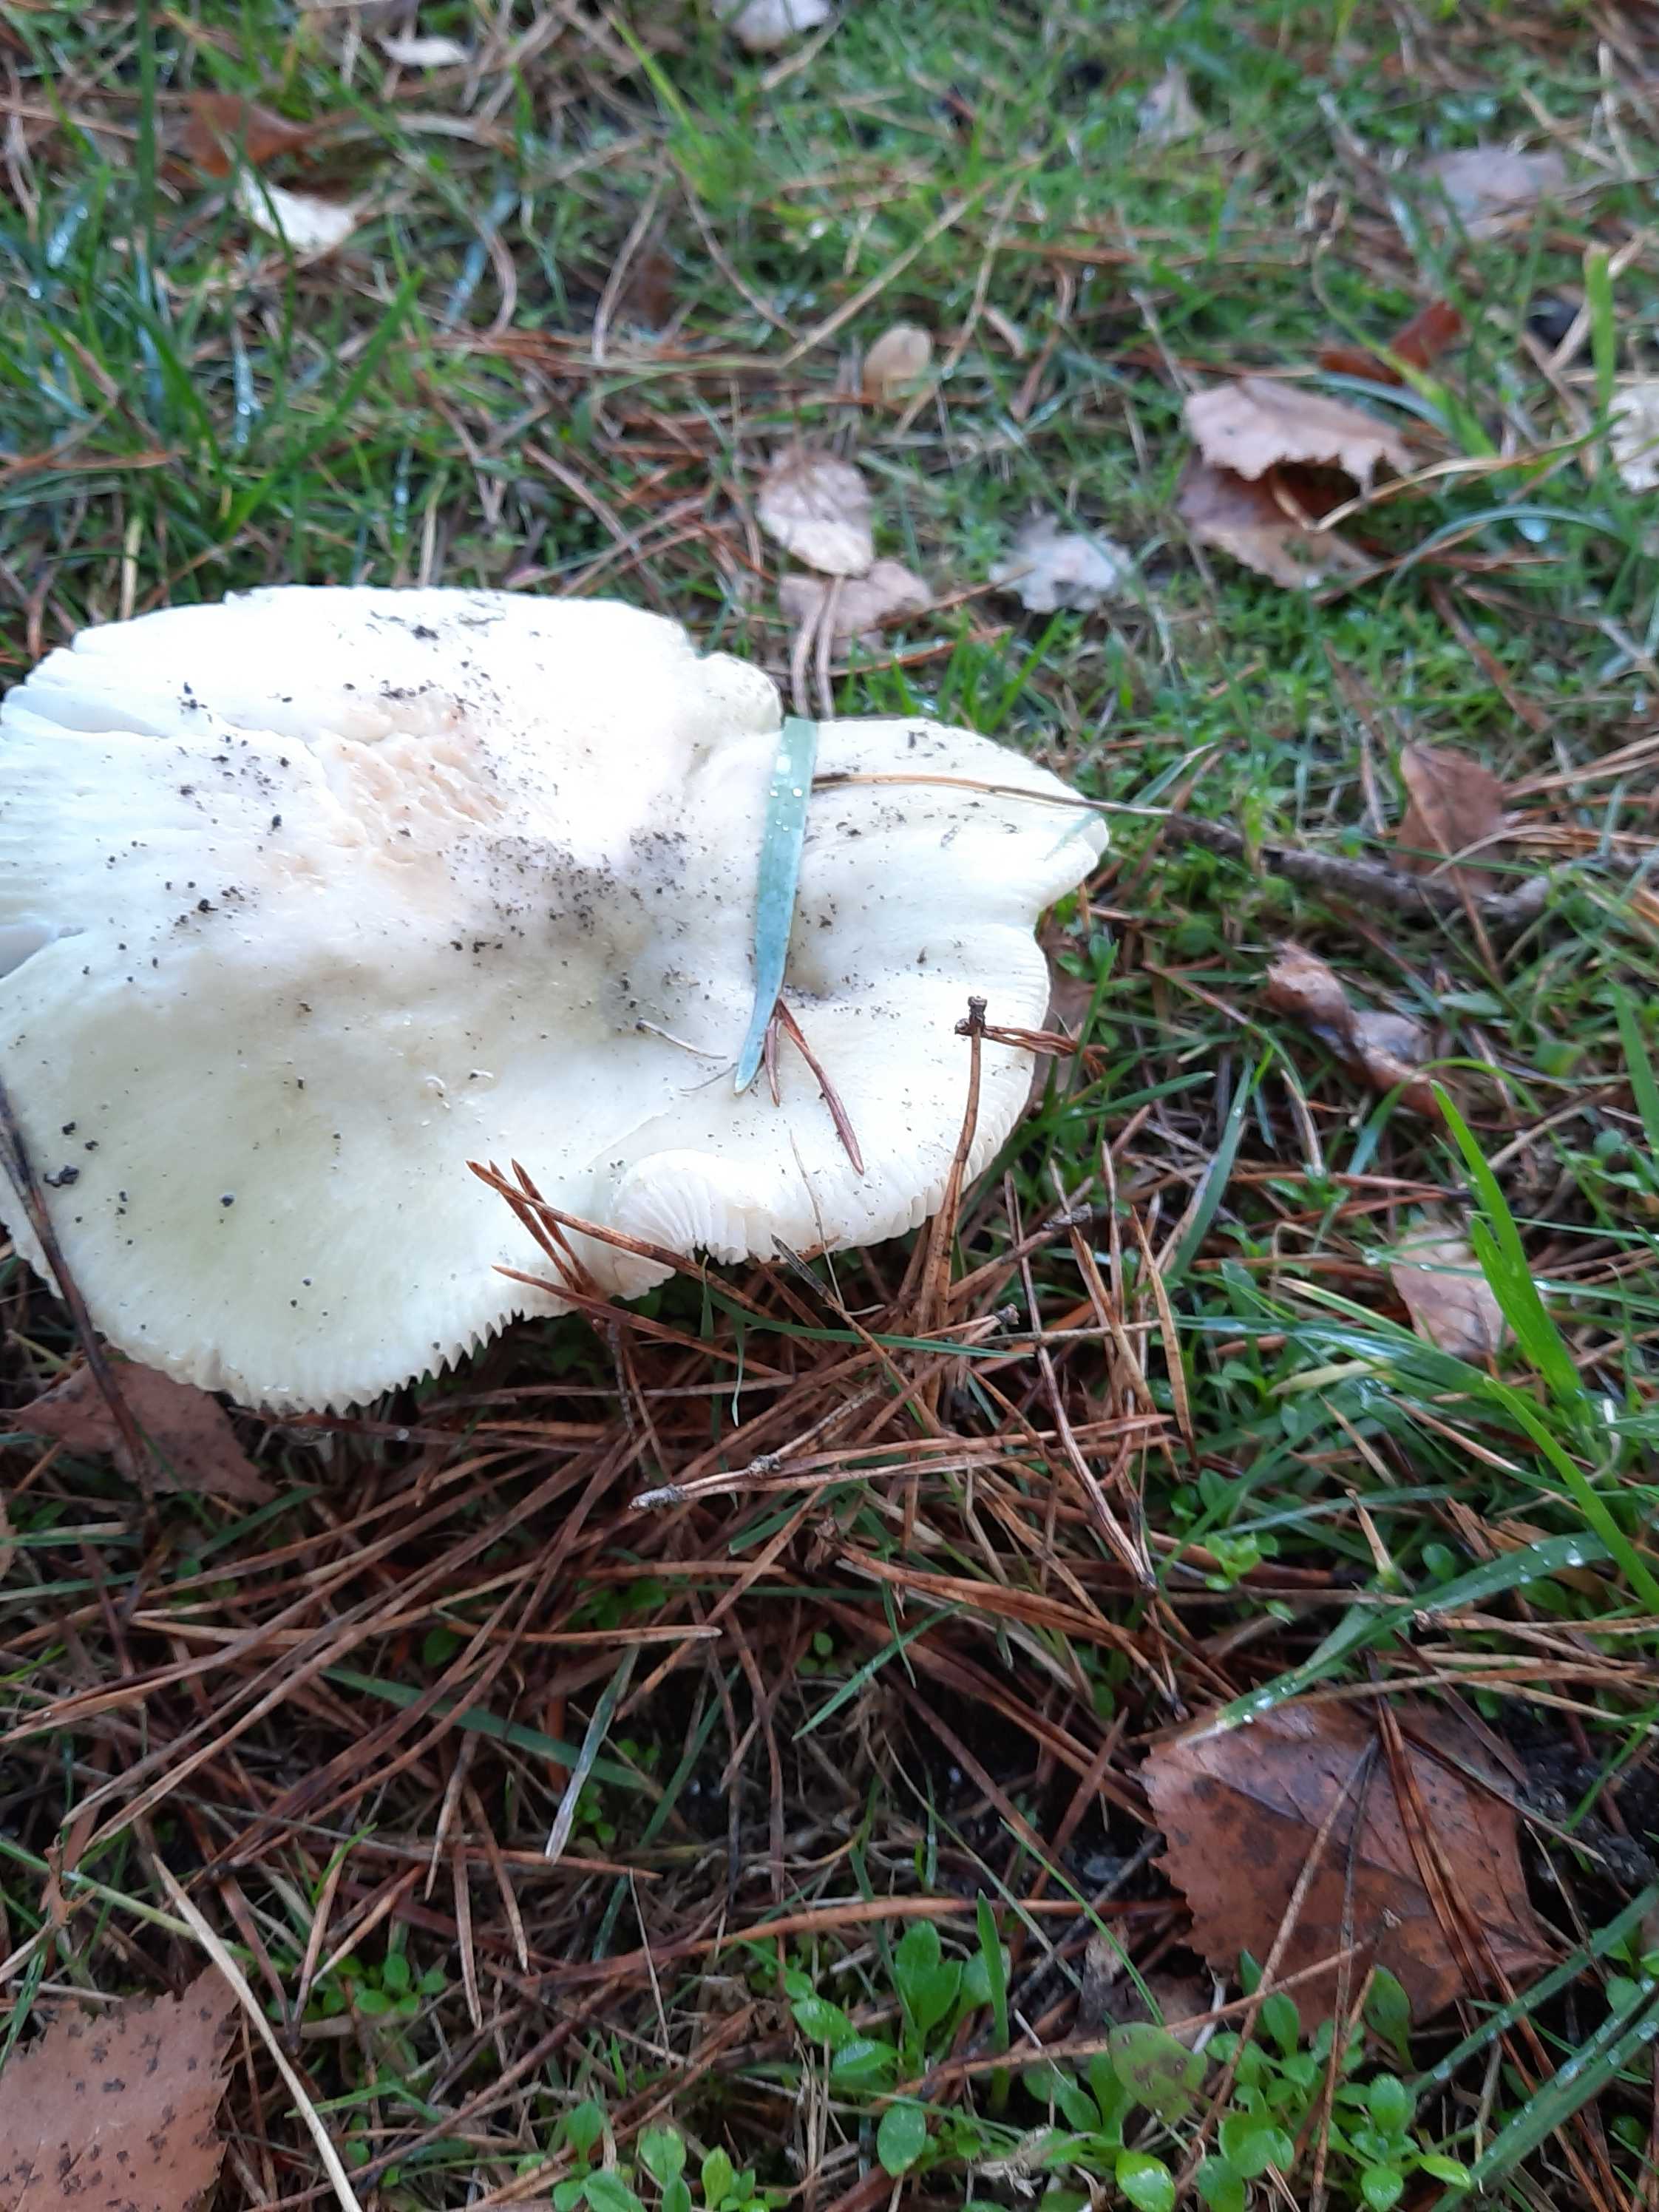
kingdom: Fungi
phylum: Basidiomycota
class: Agaricomycetes
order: Russulales
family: Russulaceae
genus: Russula
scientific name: Russula aeruginea
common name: græsgrøn skørhat
